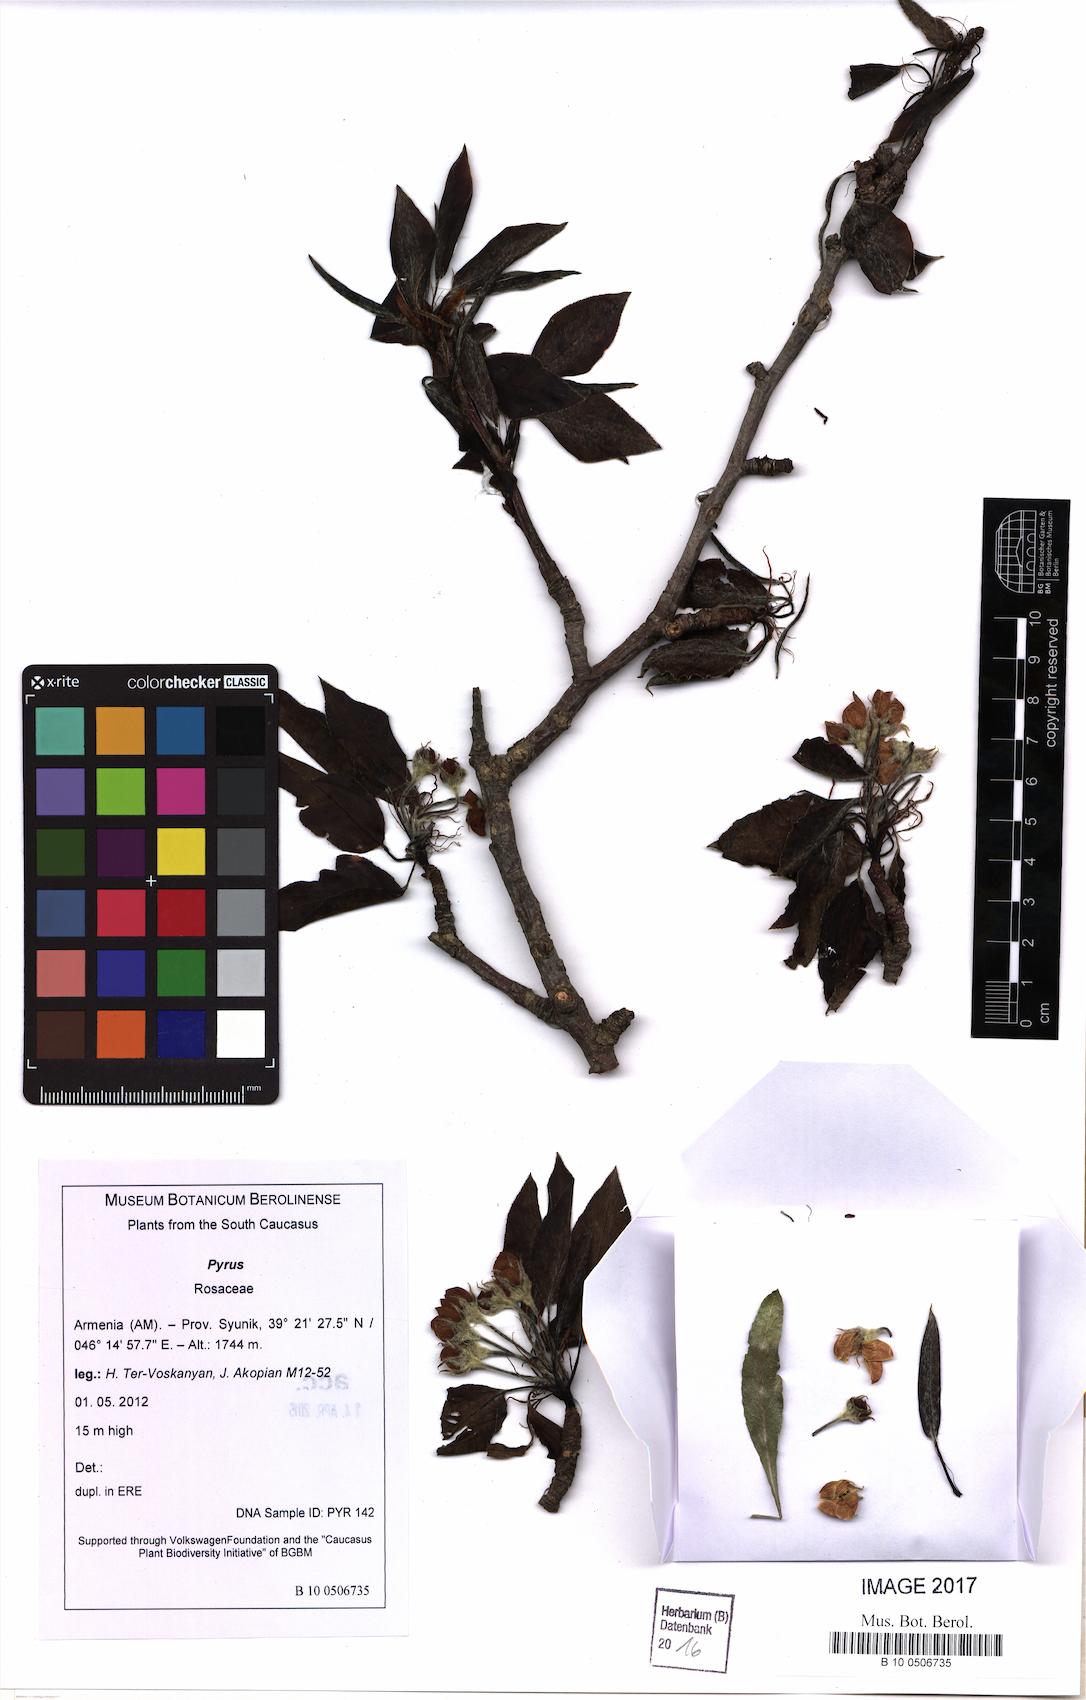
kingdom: Plantae
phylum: Tracheophyta
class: Magnoliopsida
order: Rosales
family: Rosaceae
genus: Pyrus
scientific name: Pyrus
